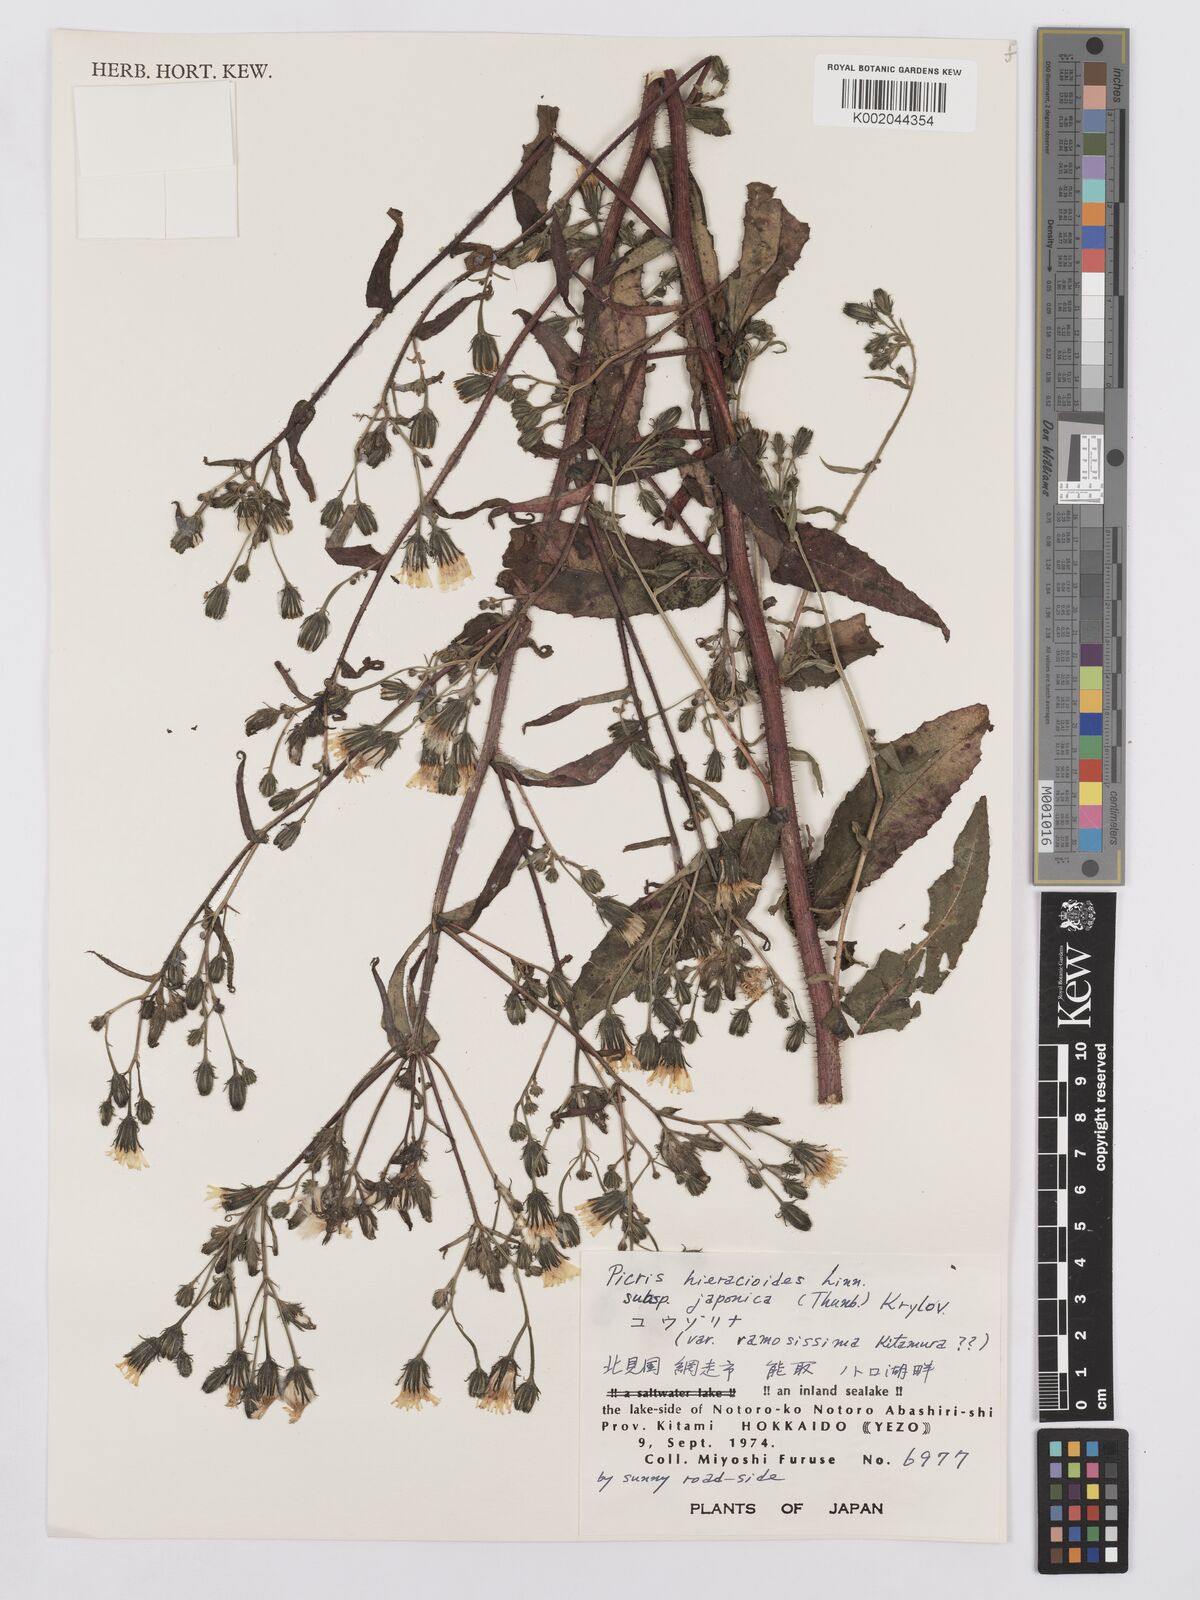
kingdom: Plantae
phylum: Tracheophyta
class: Magnoliopsida
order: Asterales
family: Asteraceae
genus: Picris
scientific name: Picris hieracioides
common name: Hawkweed oxtongue
